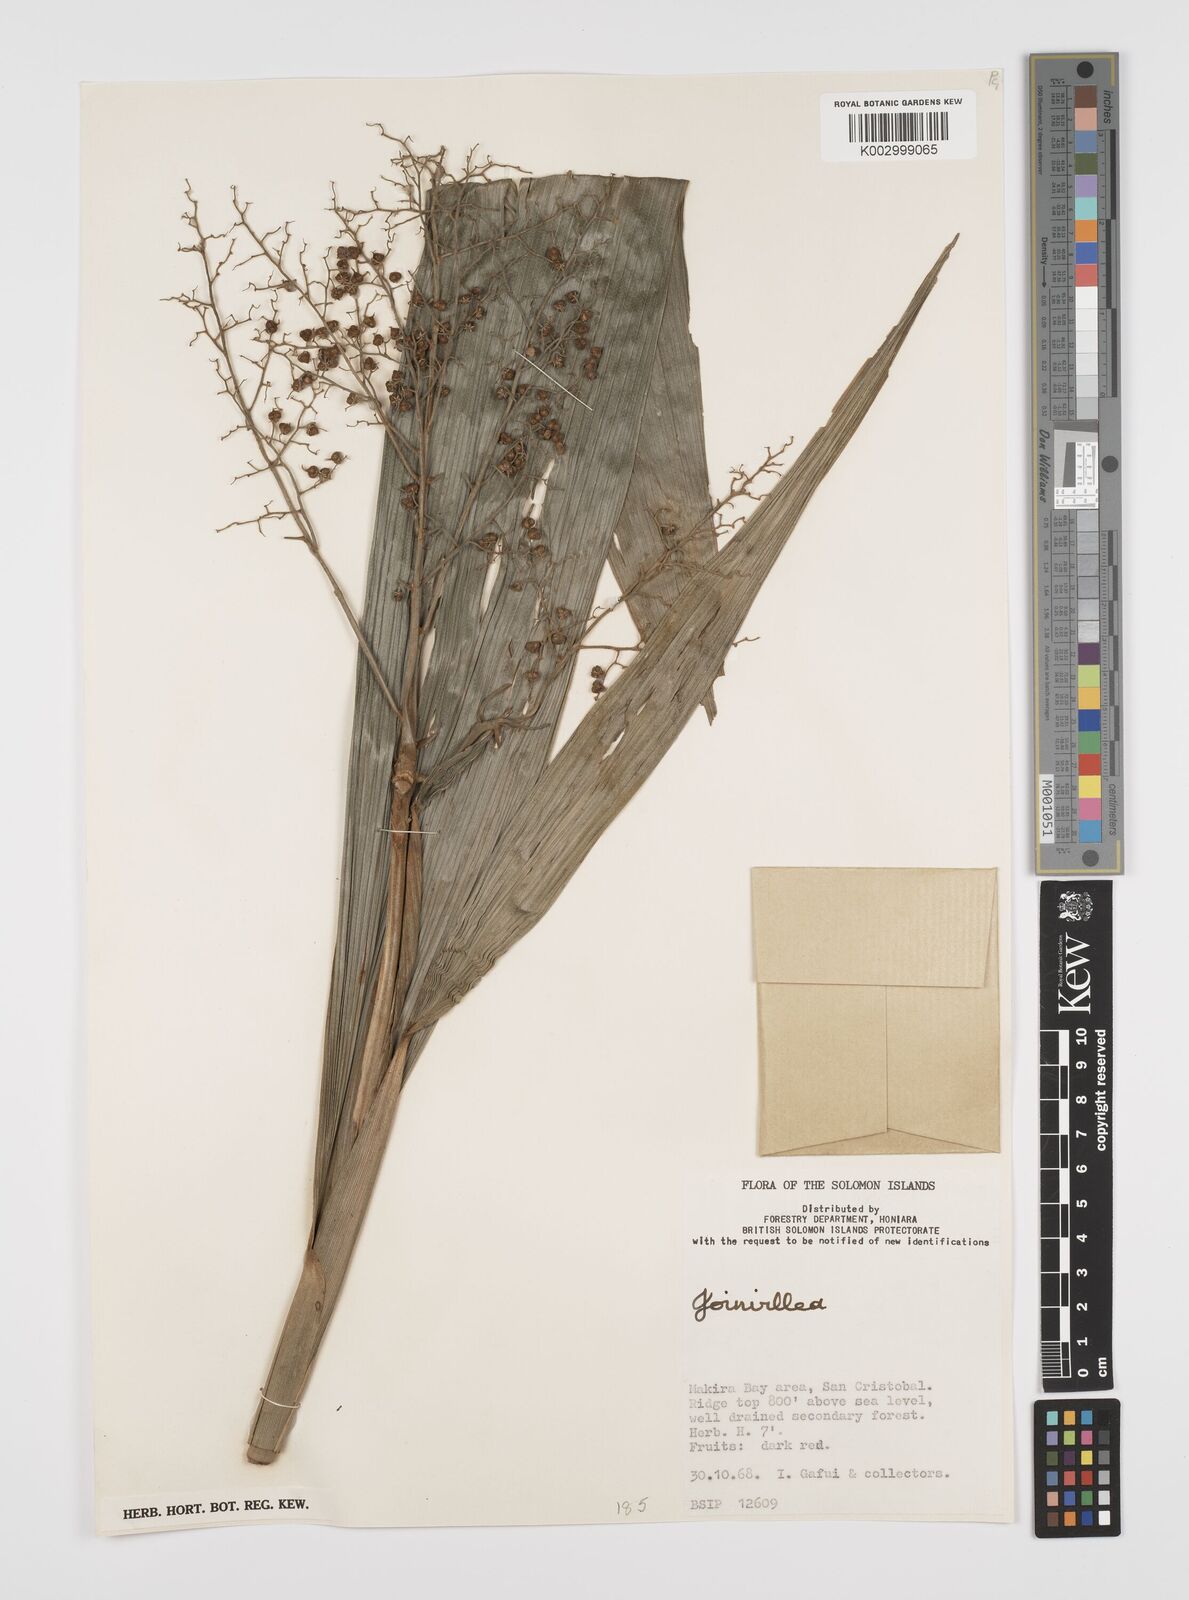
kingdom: Plantae
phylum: Tracheophyta
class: Liliopsida
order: Poales
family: Joinvilleaceae
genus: Joinvillea
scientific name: Joinvillea
